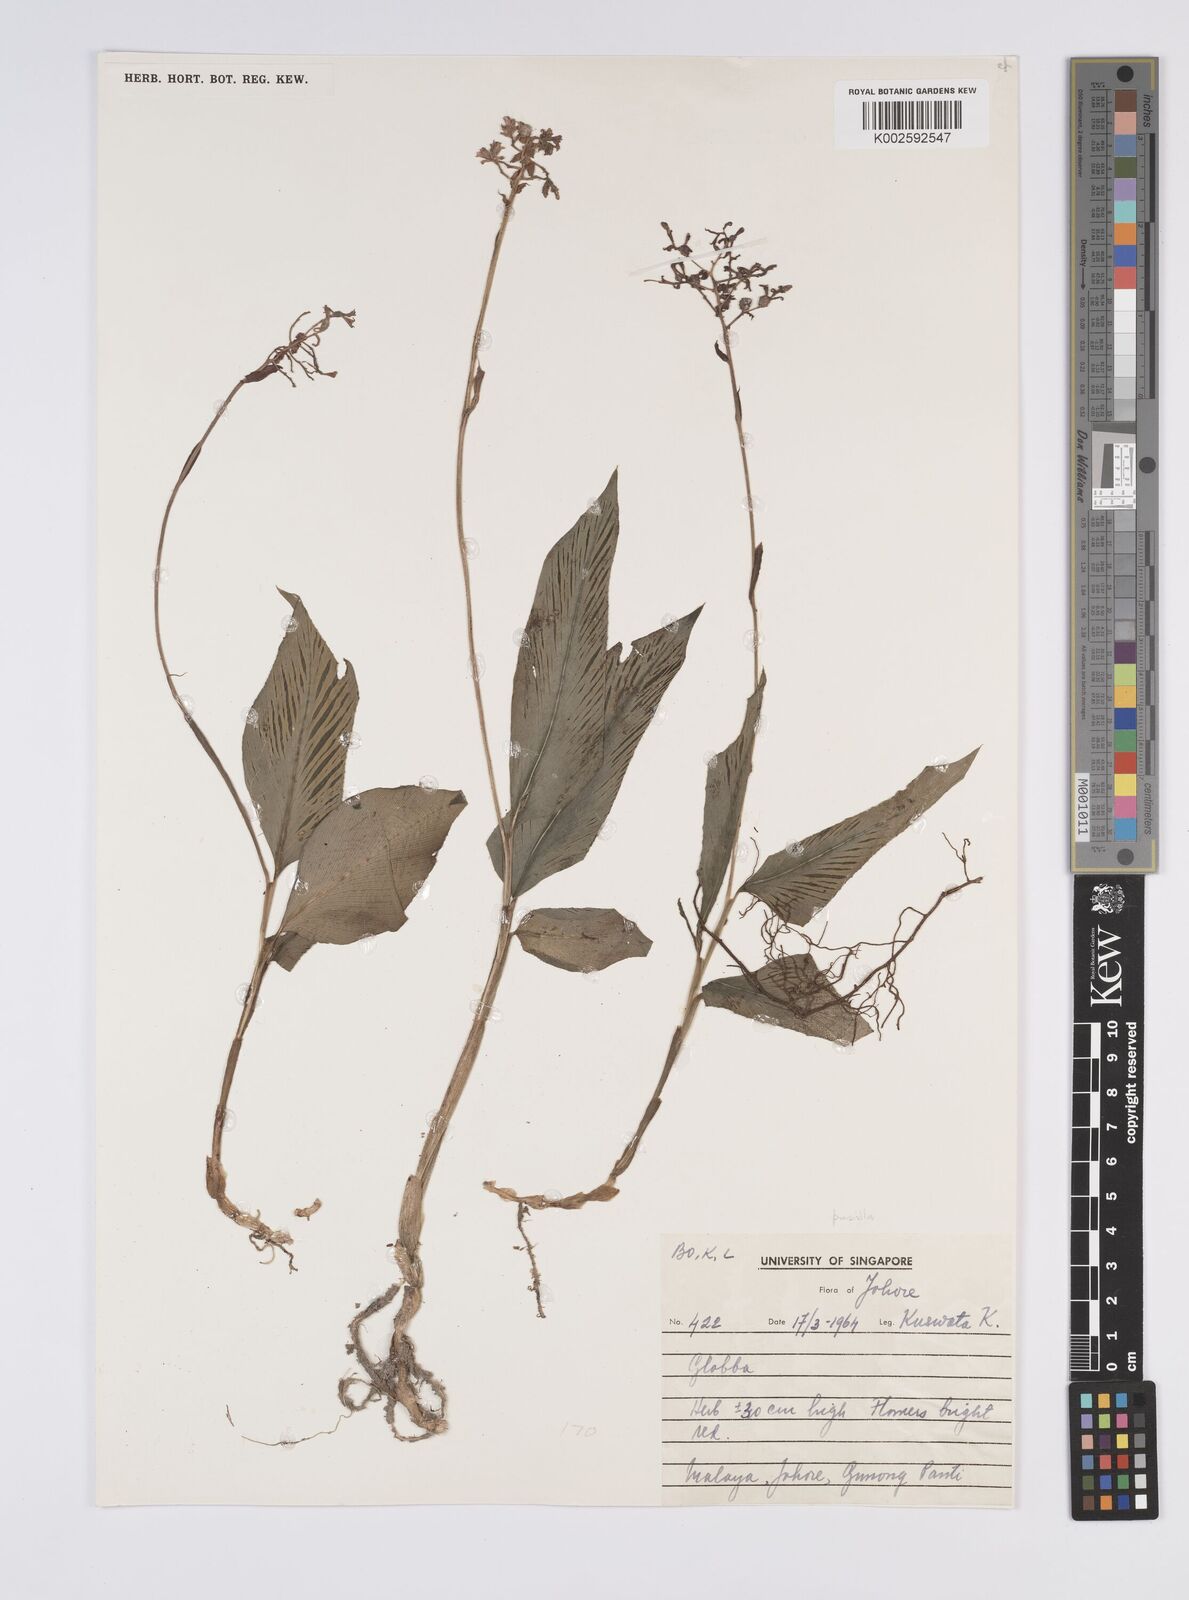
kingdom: Plantae
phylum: Tracheophyta
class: Liliopsida
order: Zingiberales
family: Zingiberaceae
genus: Globba
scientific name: Globba
